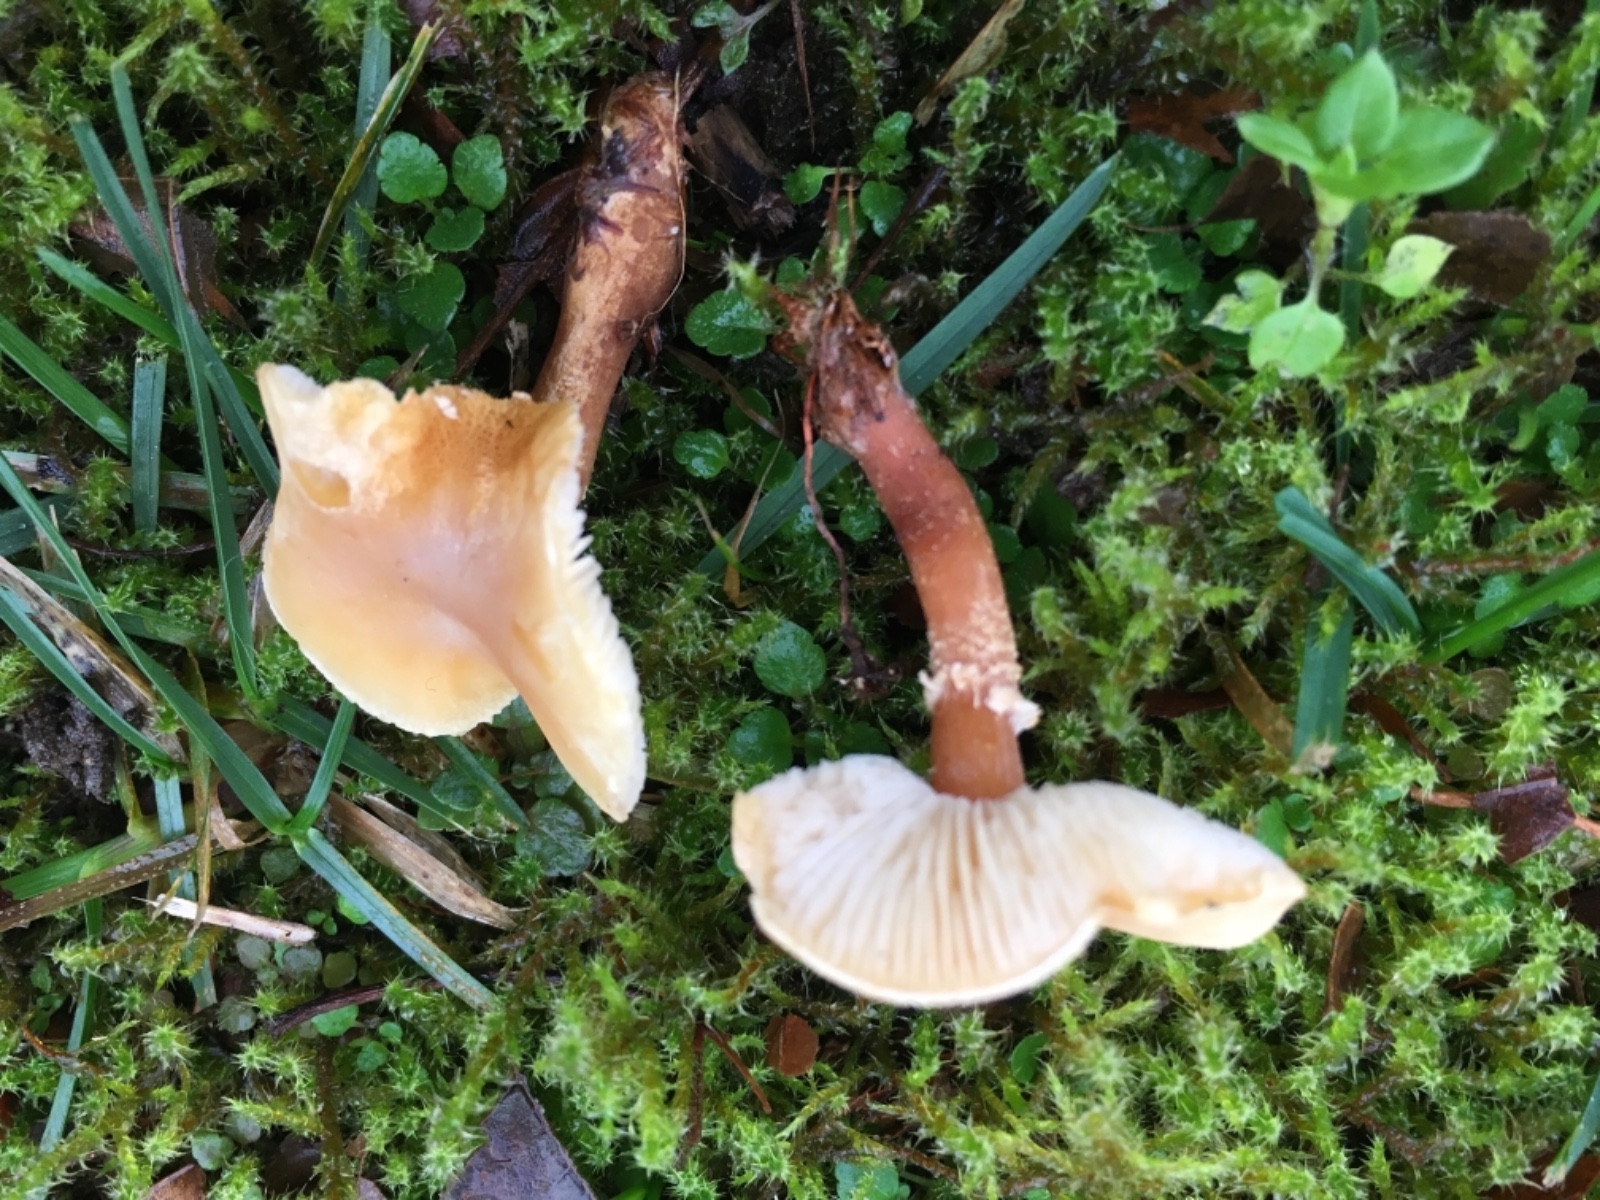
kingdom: Fungi
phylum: Basidiomycota
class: Agaricomycetes
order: Agaricales
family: Tricholomataceae
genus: Cystoderma
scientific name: Cystoderma amianthinum
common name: okkergul grynhat
